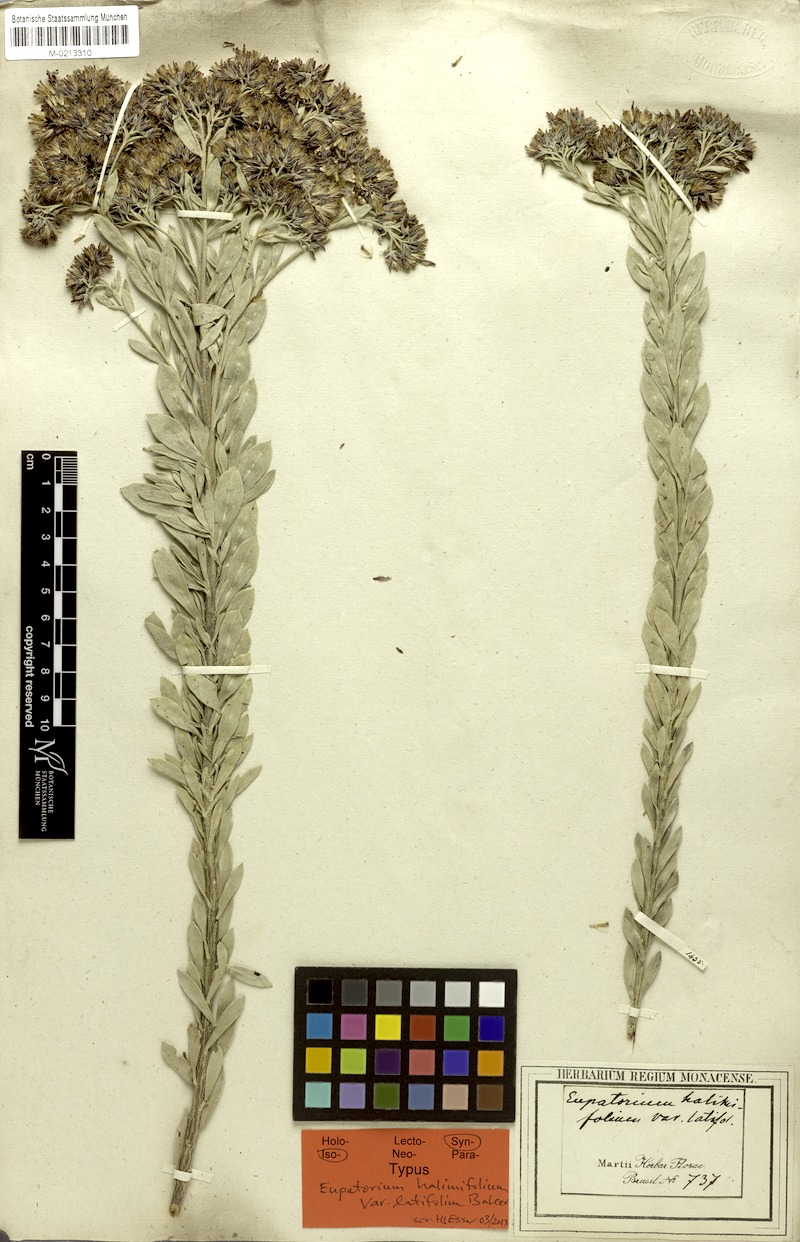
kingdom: Plantae
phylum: Tracheophyta
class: Magnoliopsida
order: Asterales
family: Asteraceae
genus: Disynaphia
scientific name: Disynaphia spathulata
